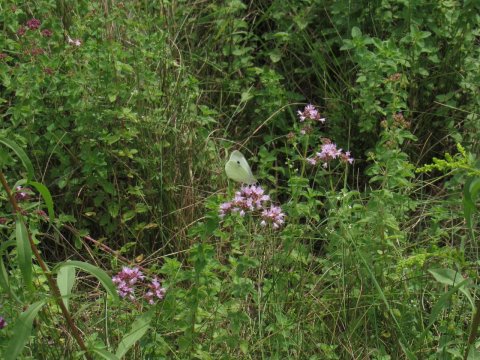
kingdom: Animalia
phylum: Arthropoda
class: Insecta
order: Lepidoptera
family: Pieridae
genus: Pieris
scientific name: Pieris rapae
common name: Cabbage White
